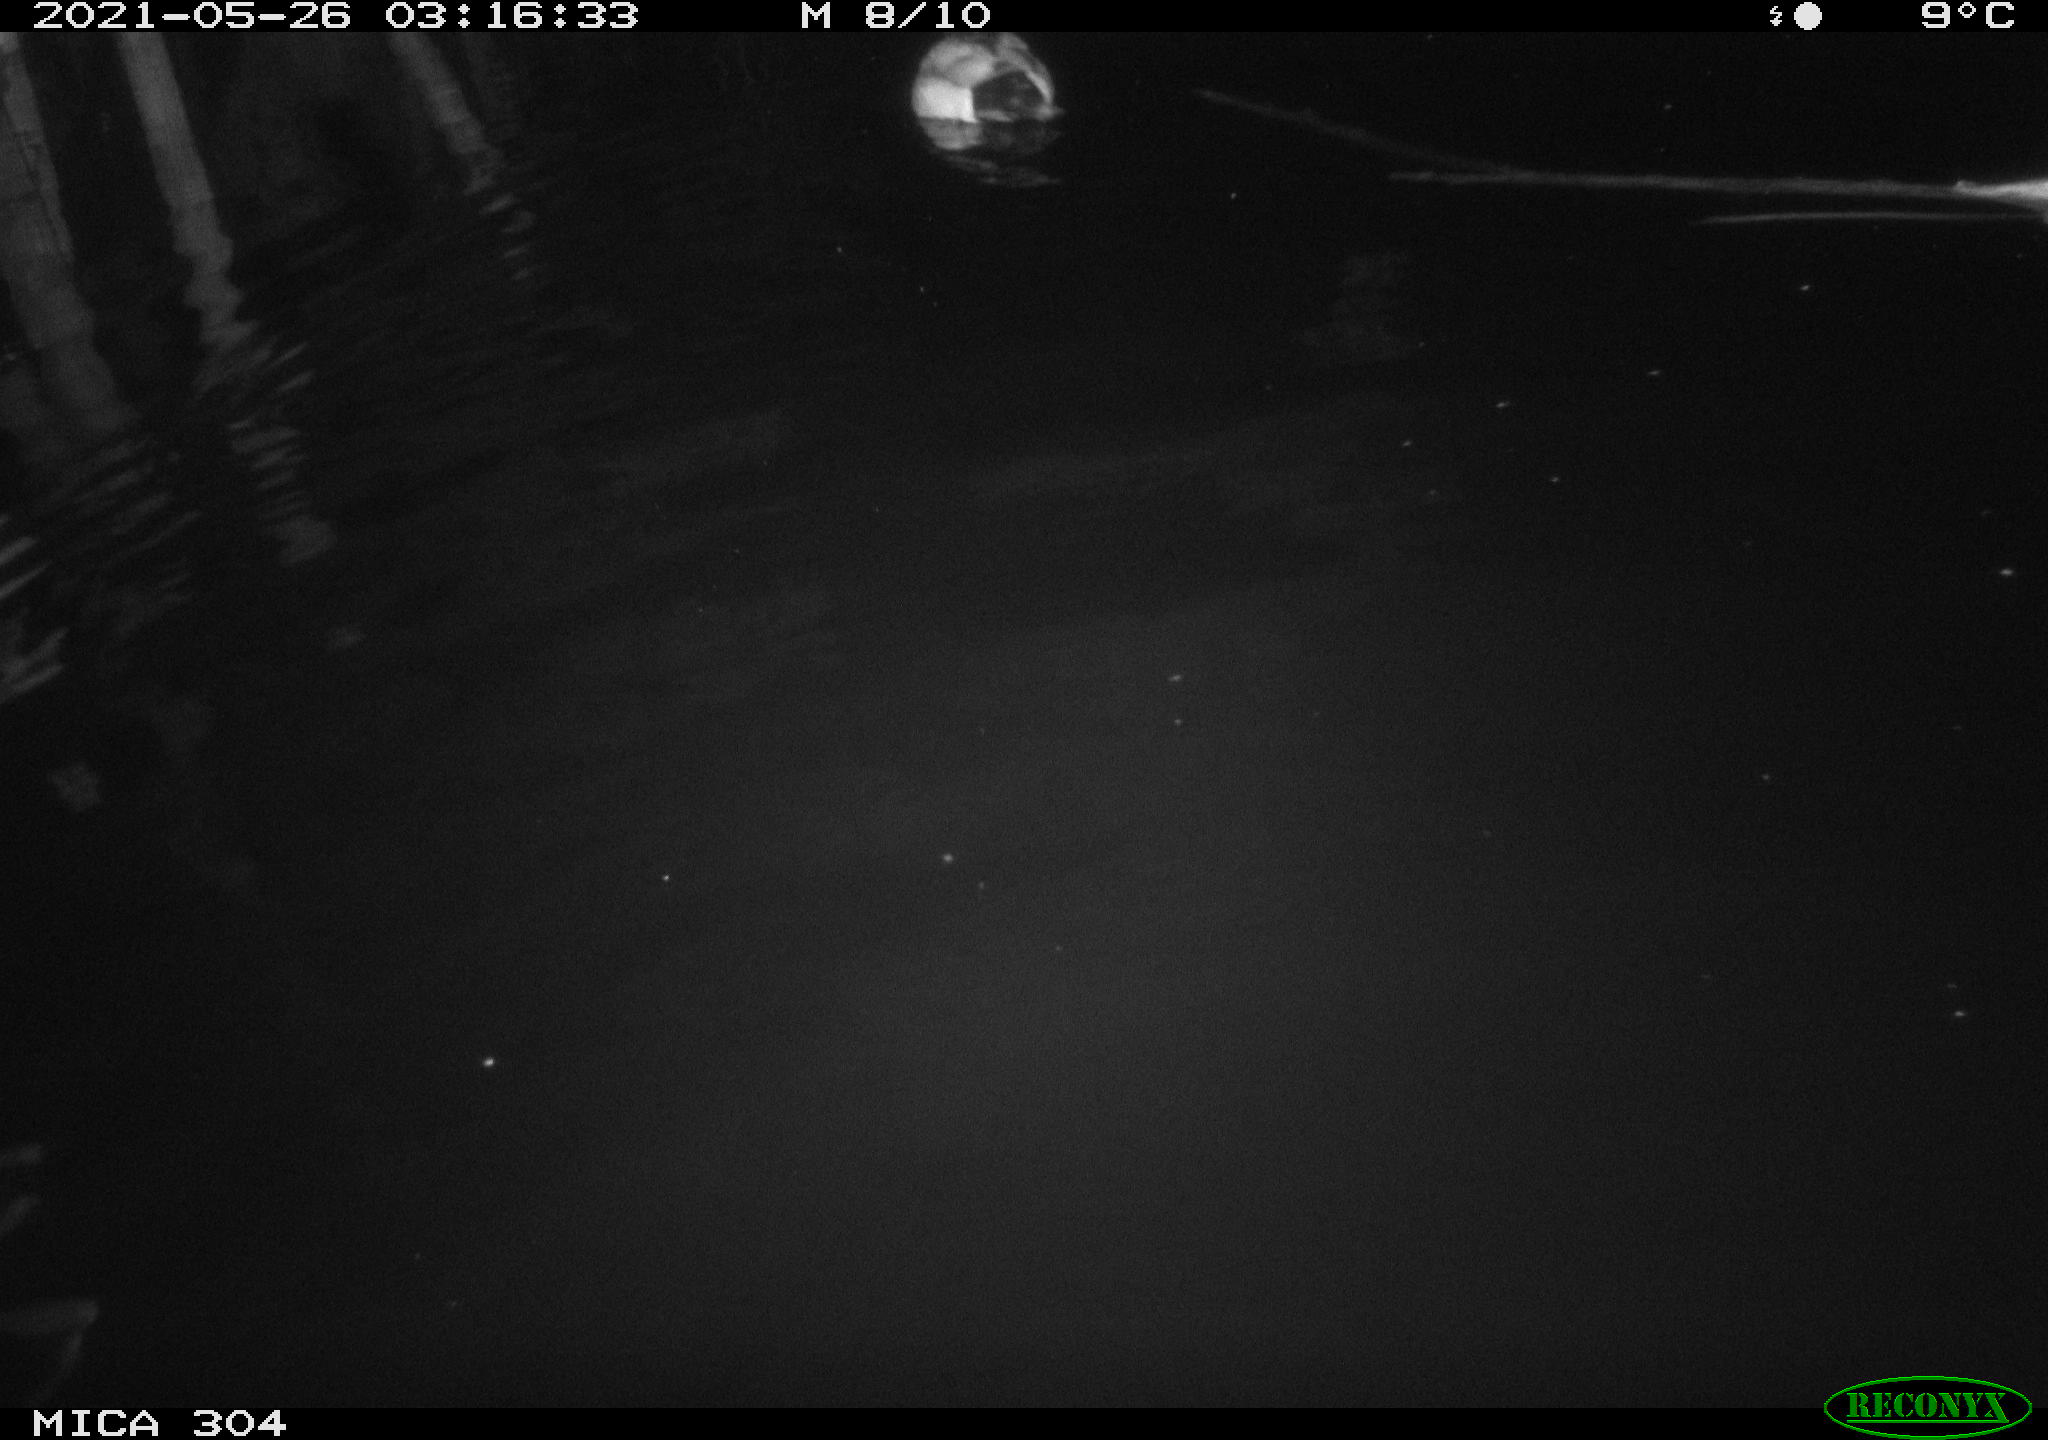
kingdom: Animalia
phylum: Chordata
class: Aves
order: Anseriformes
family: Anatidae
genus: Anas
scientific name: Anas platyrhynchos
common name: Mallard
